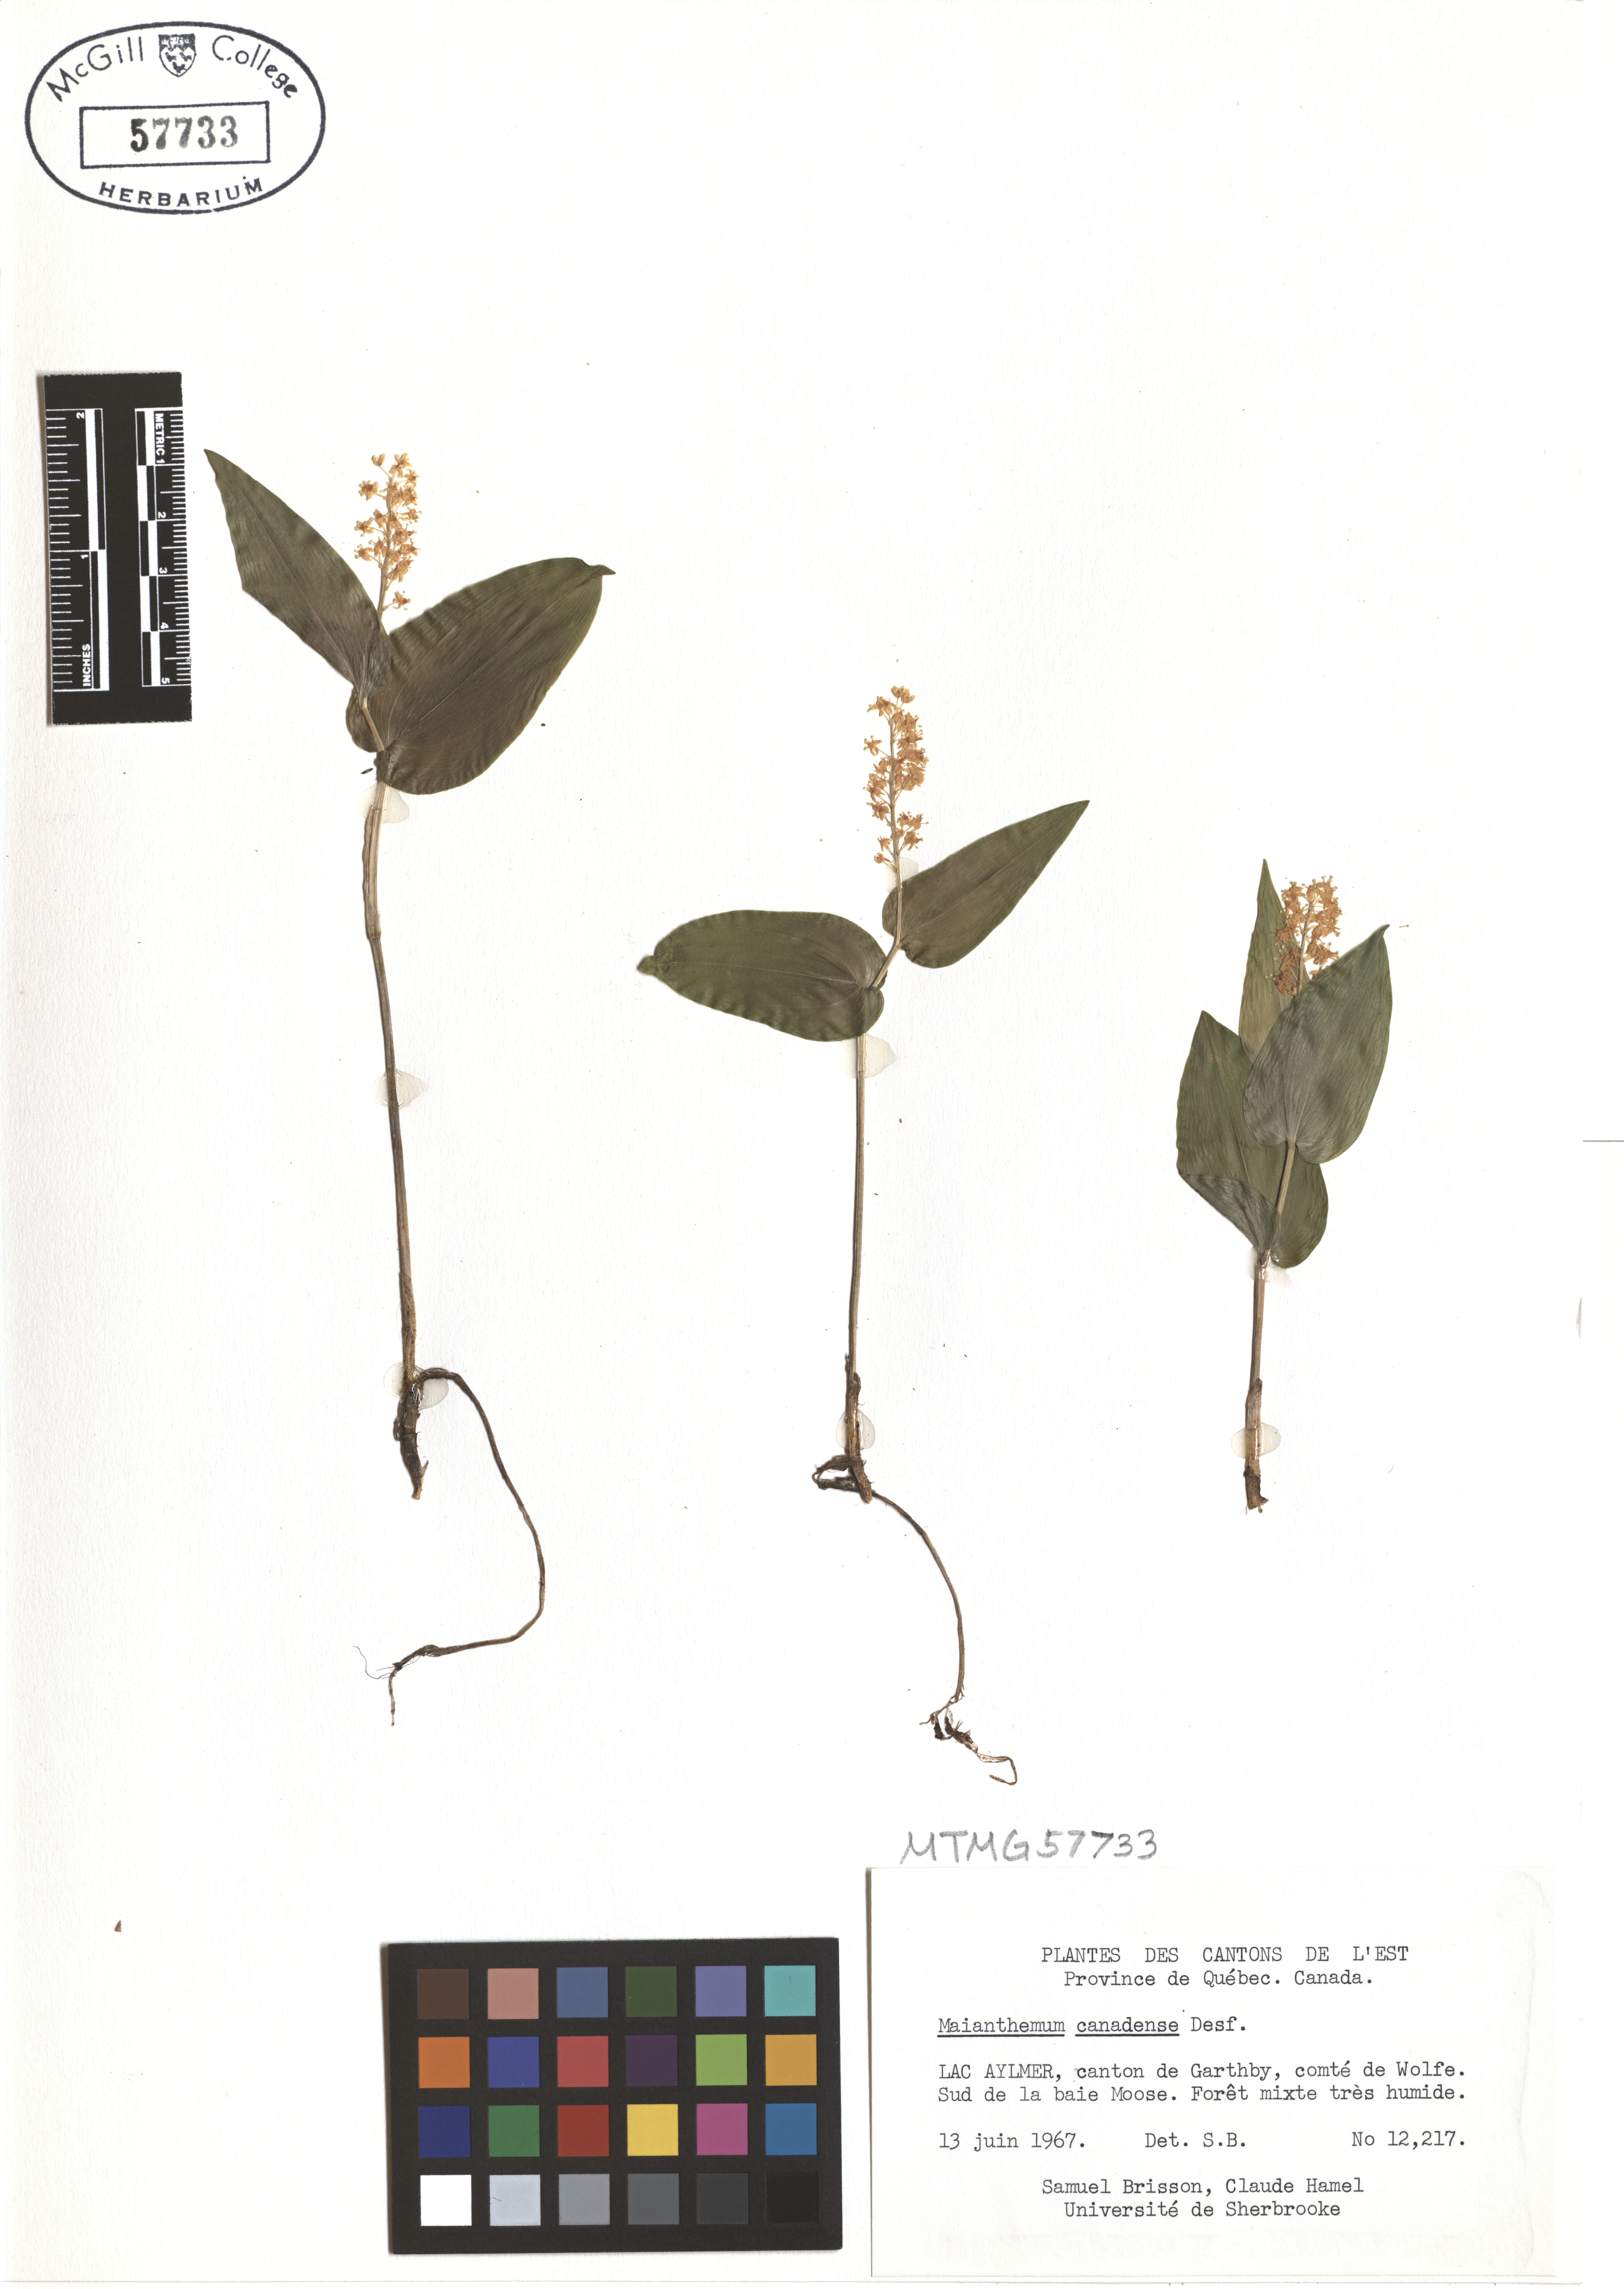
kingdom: Plantae
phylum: Tracheophyta
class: Liliopsida
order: Asparagales
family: Asparagaceae
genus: Maianthemum
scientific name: Maianthemum canadense
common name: False lily-of-the-valley
